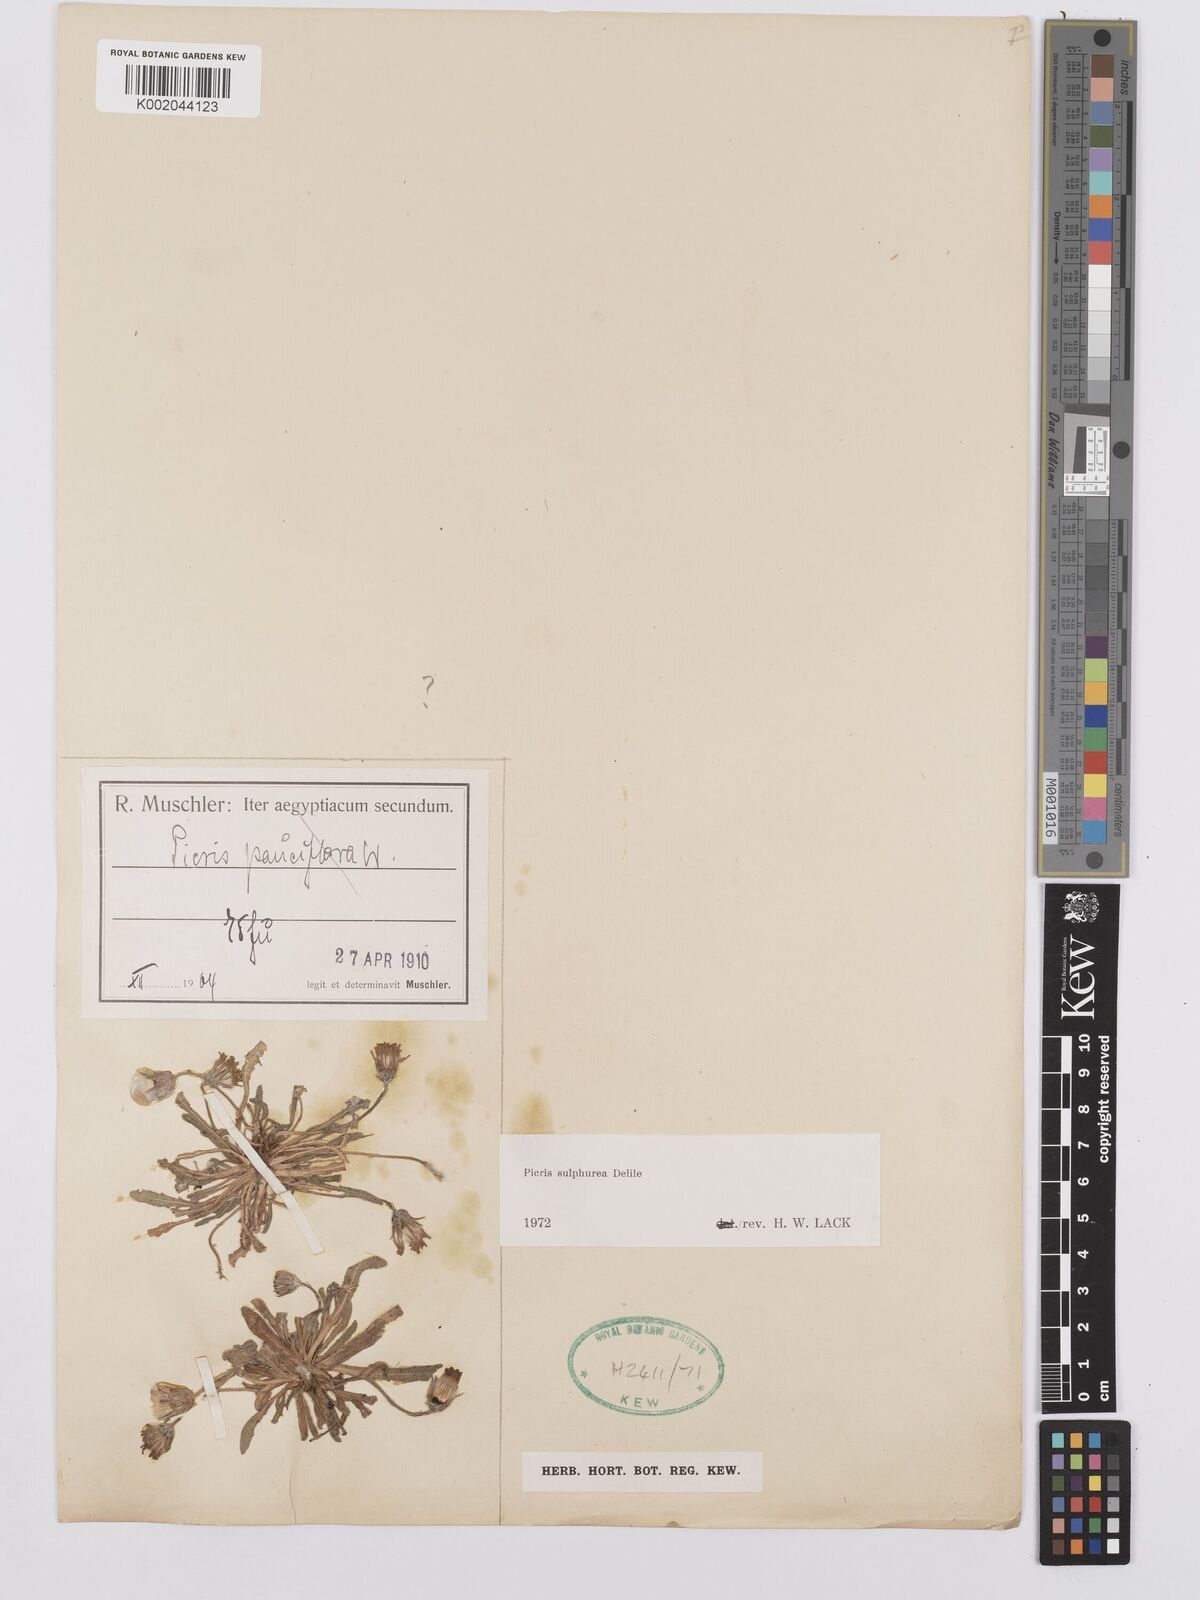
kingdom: Plantae
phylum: Tracheophyta
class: Magnoliopsida
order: Asterales
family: Asteraceae
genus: Picris
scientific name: Picris sulphurea
